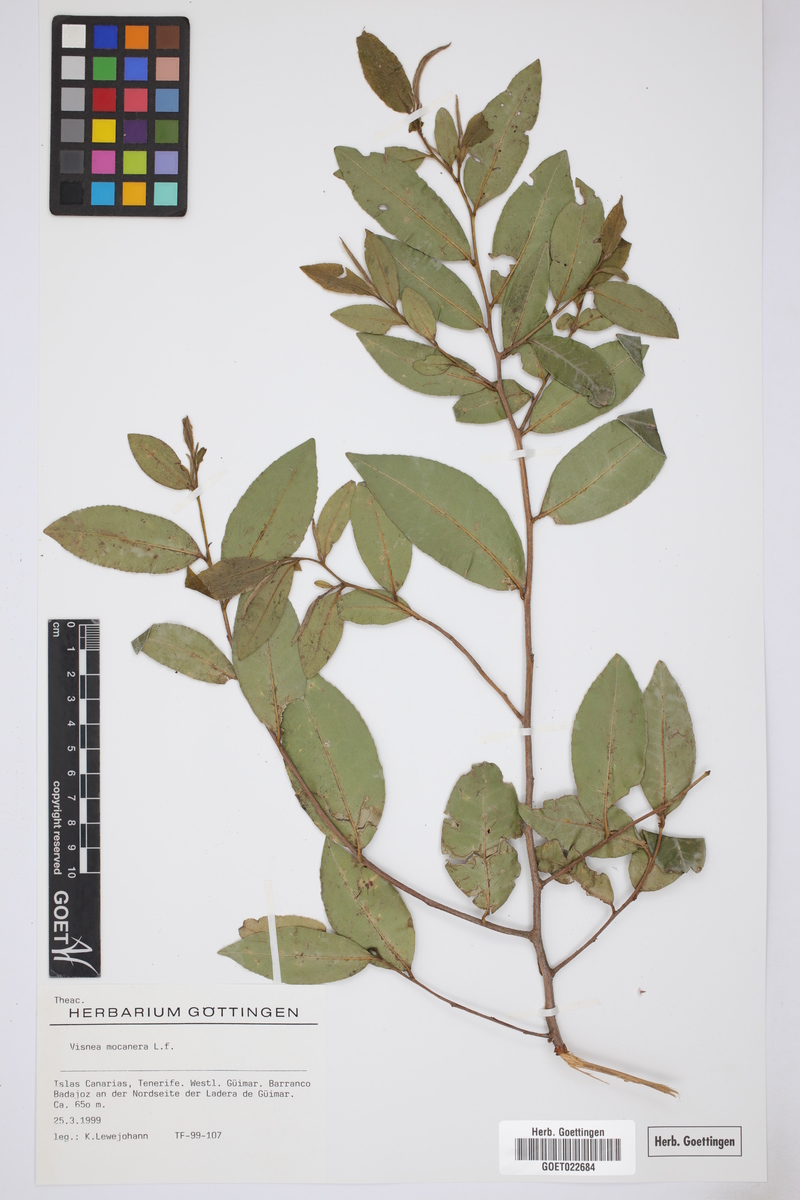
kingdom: Plantae
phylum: Tracheophyta
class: Magnoliopsida
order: Ericales
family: Pentaphylacaceae
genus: Visnea
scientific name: Visnea mocanera
